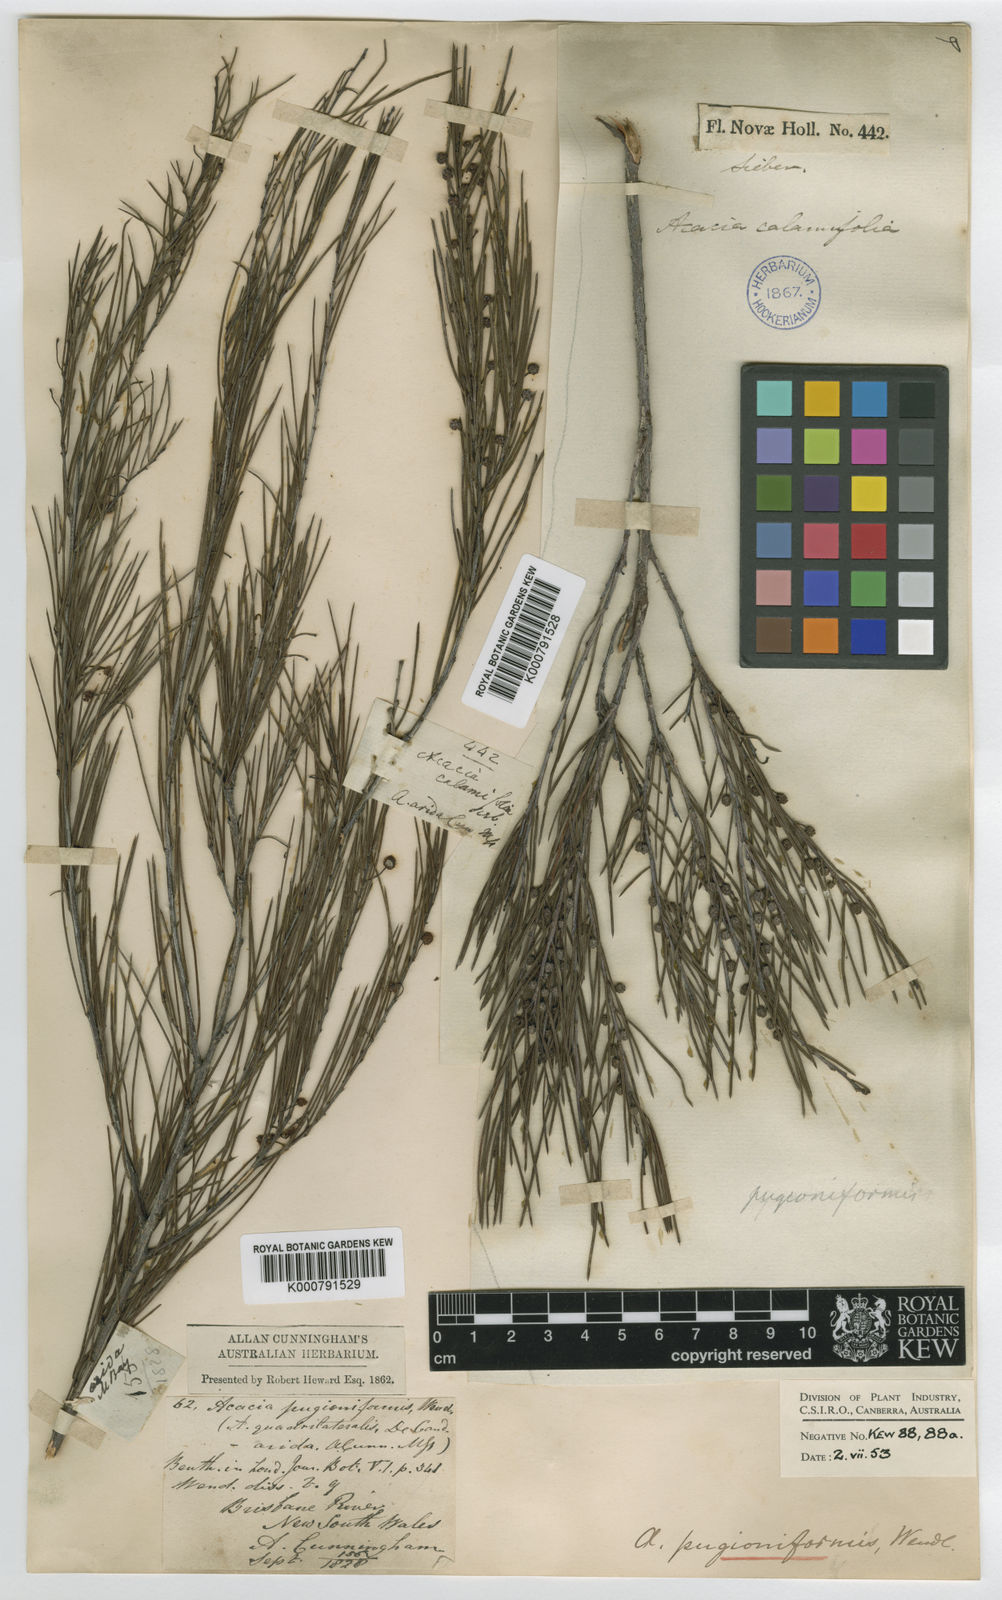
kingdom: Plantae
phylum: Tracheophyta
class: Magnoliopsida
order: Fabales
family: Fabaceae
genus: Acacia
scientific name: Acacia
